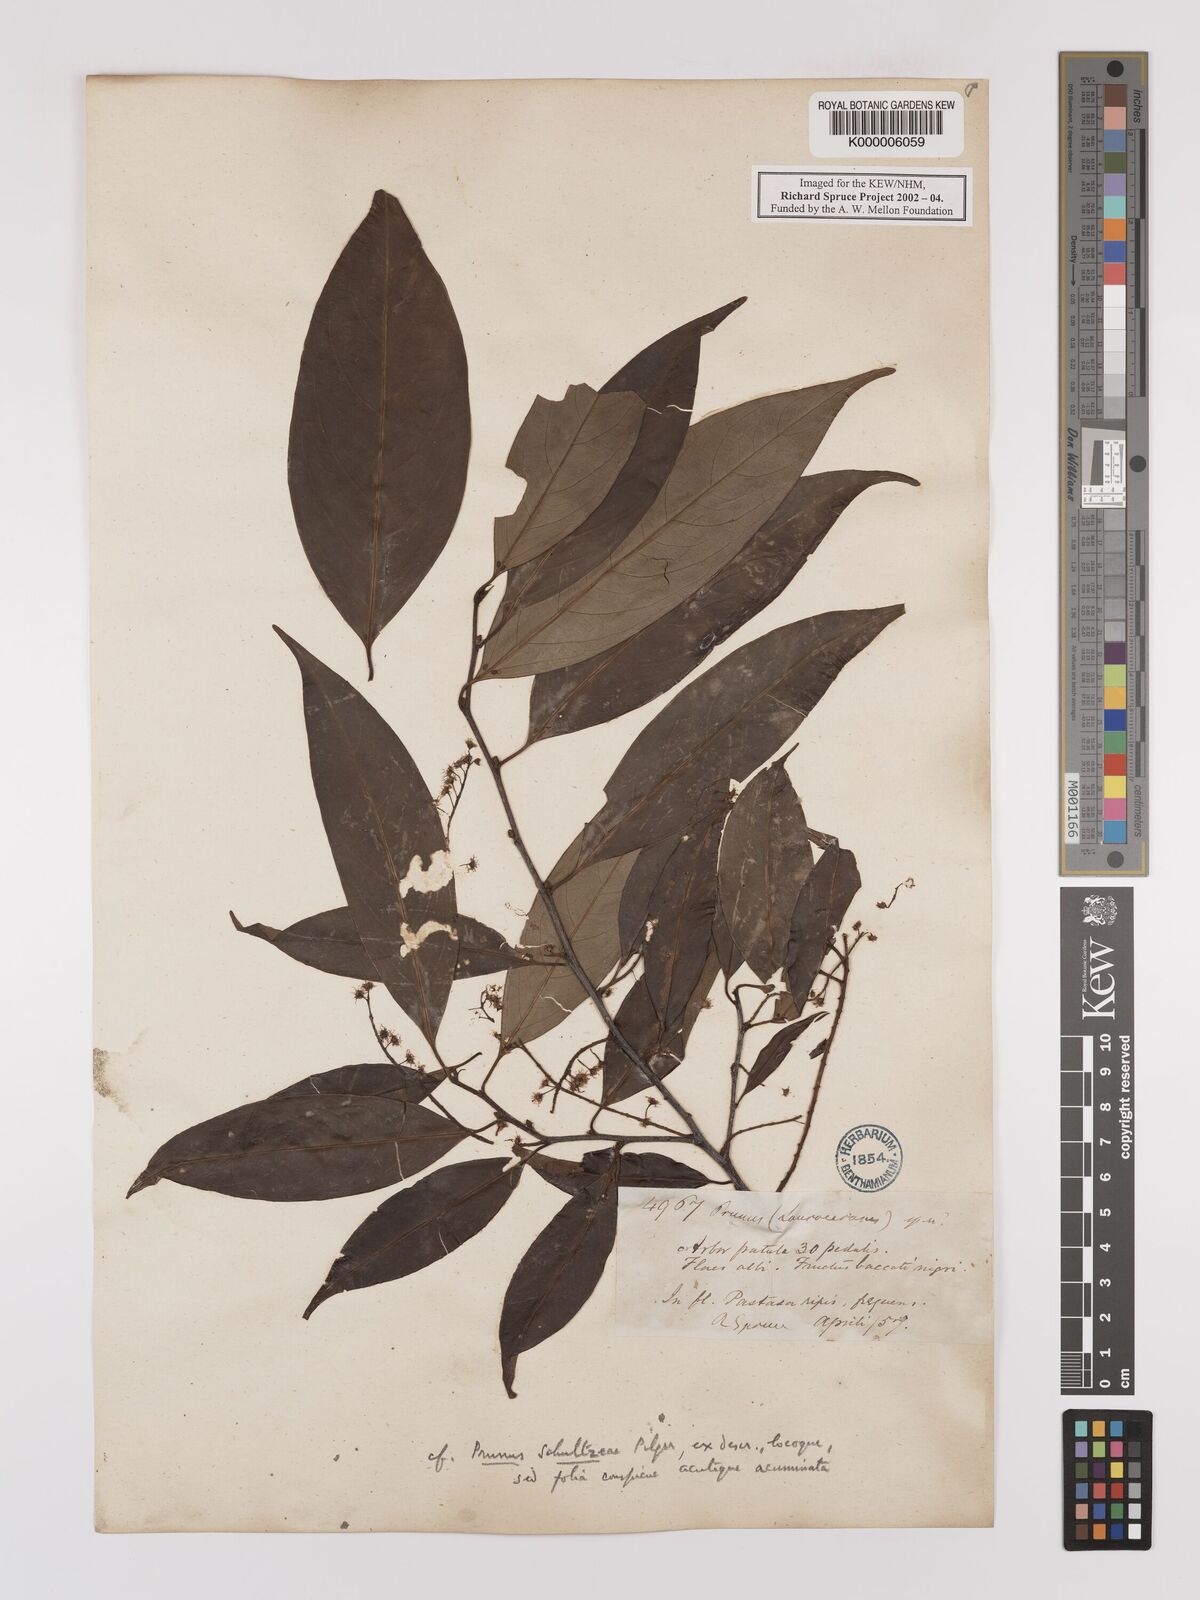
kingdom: Plantae
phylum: Tracheophyta
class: Magnoliopsida
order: Rosales
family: Rosaceae
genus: Prunus
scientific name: Prunus schultzeae
